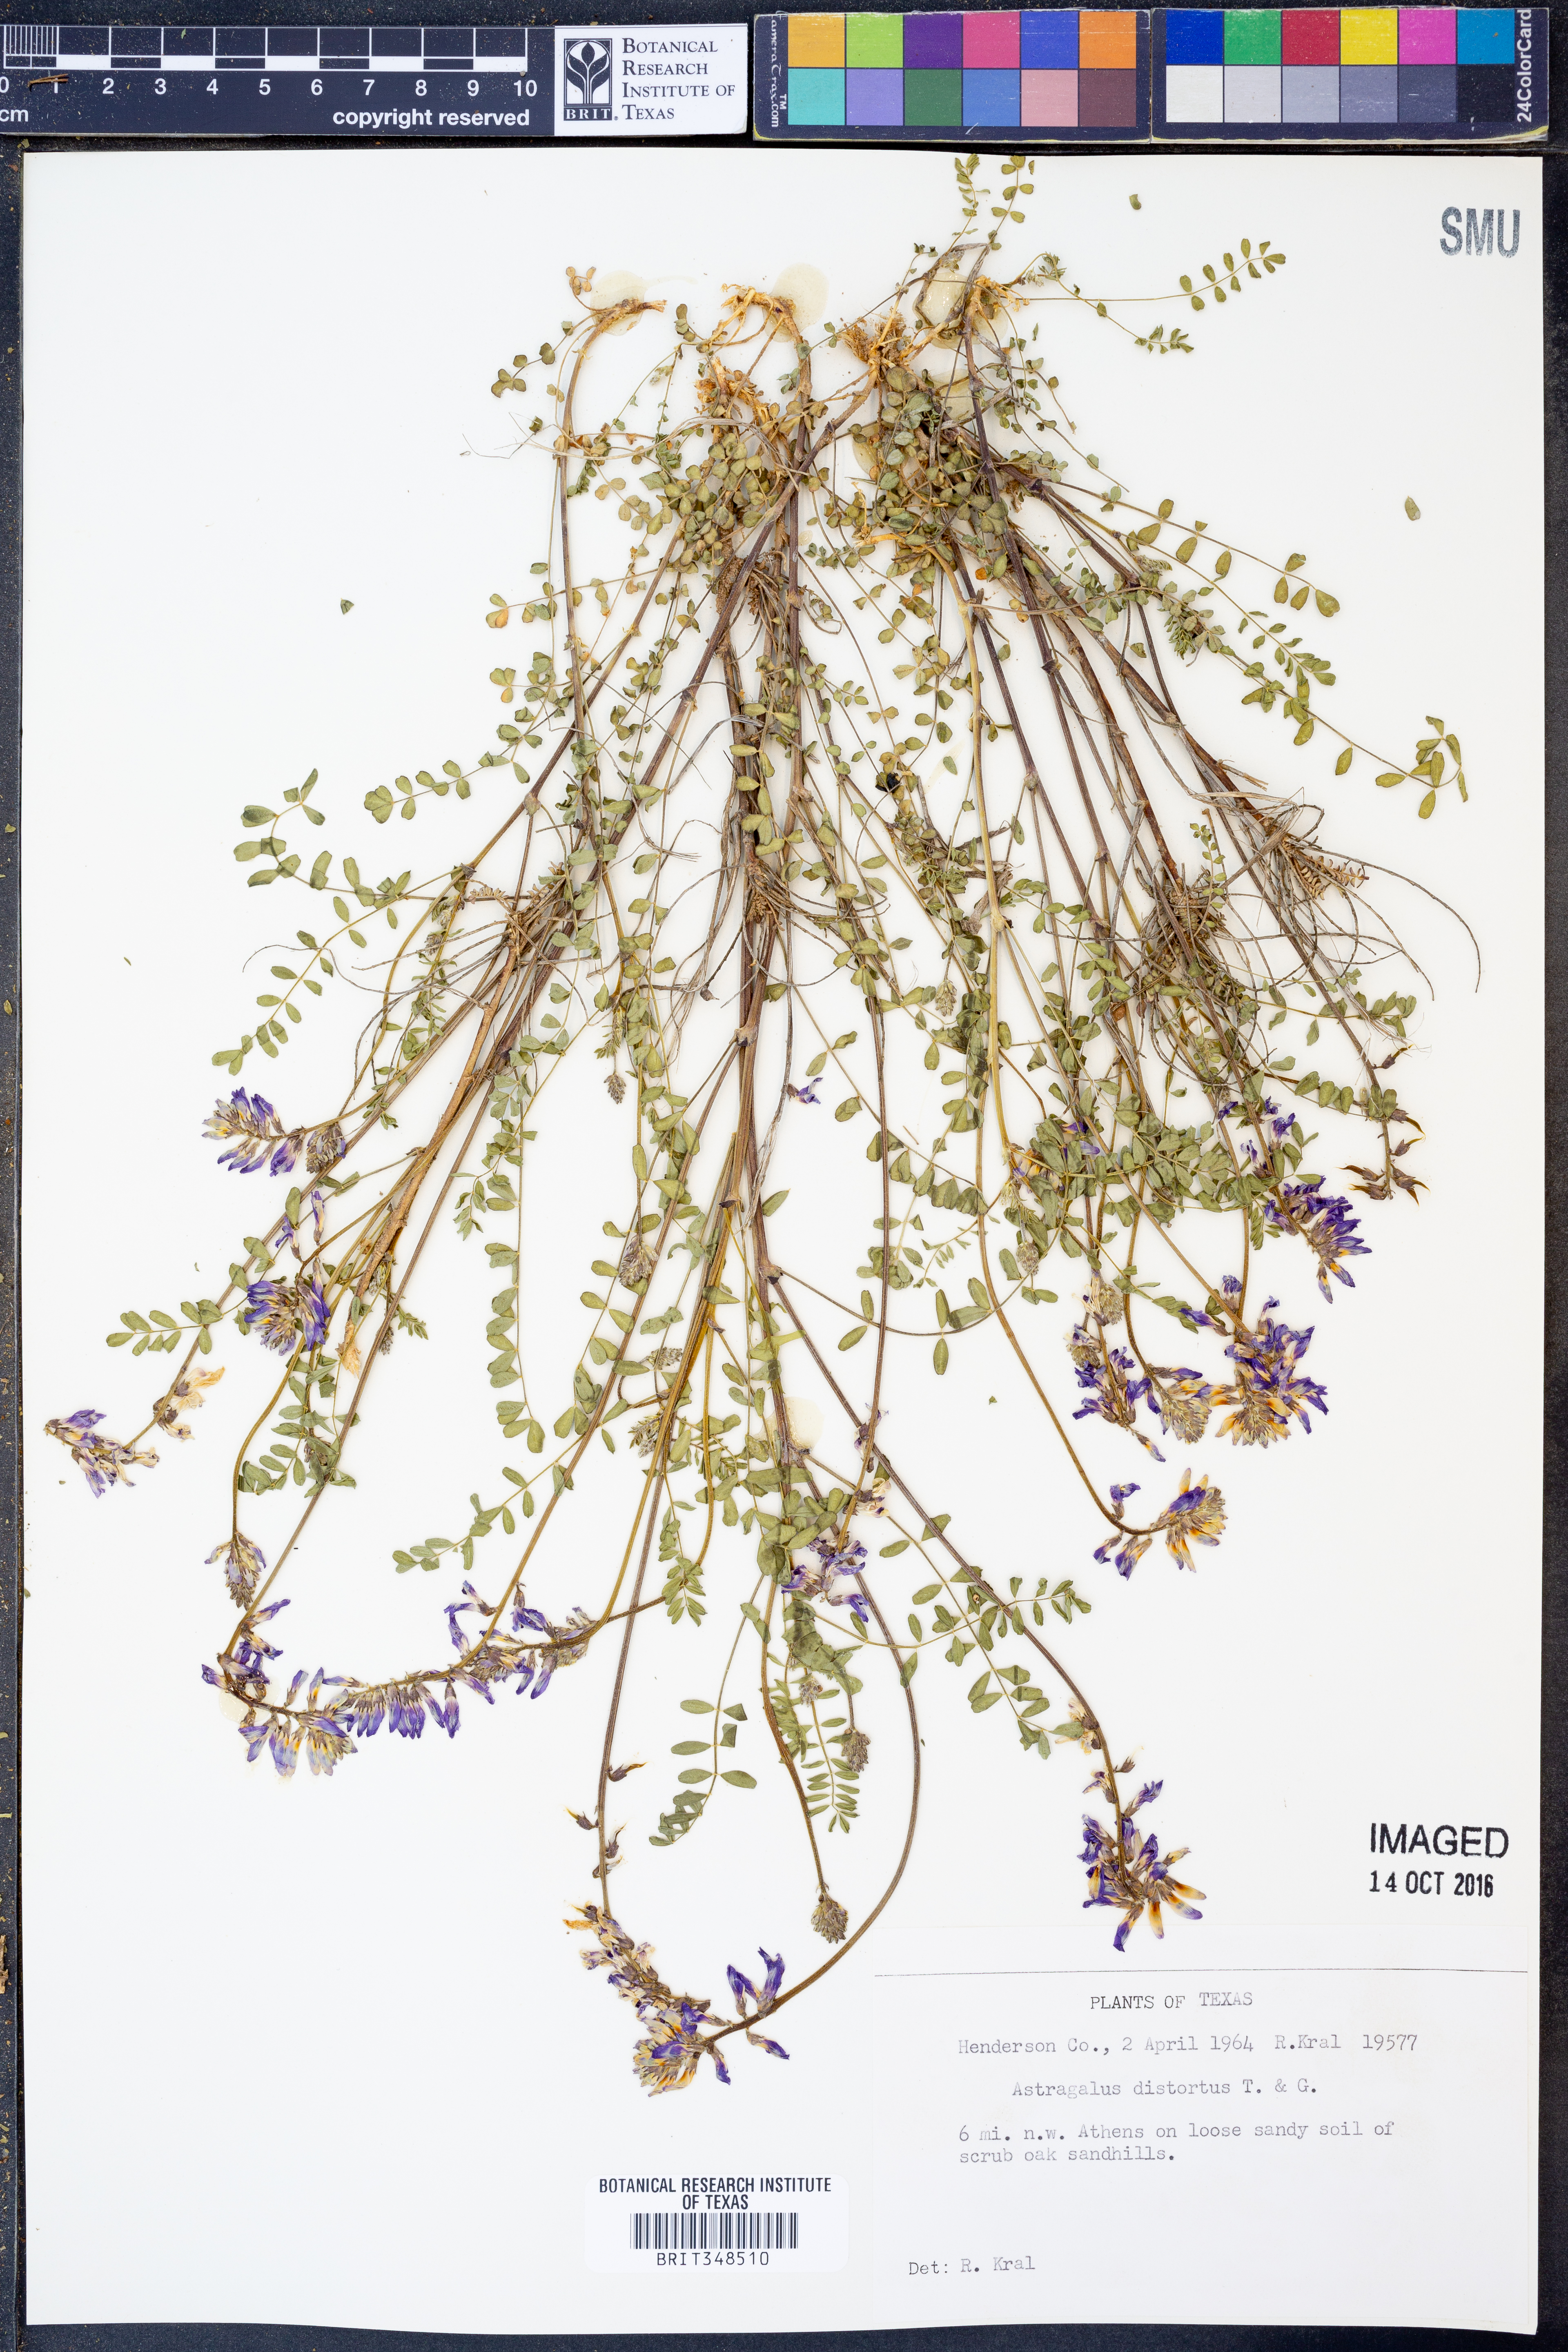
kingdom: Plantae
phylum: Tracheophyta
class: Magnoliopsida
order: Fabales
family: Fabaceae
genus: Astragalus
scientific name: Astragalus distortus
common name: Ozark milk-vetch
